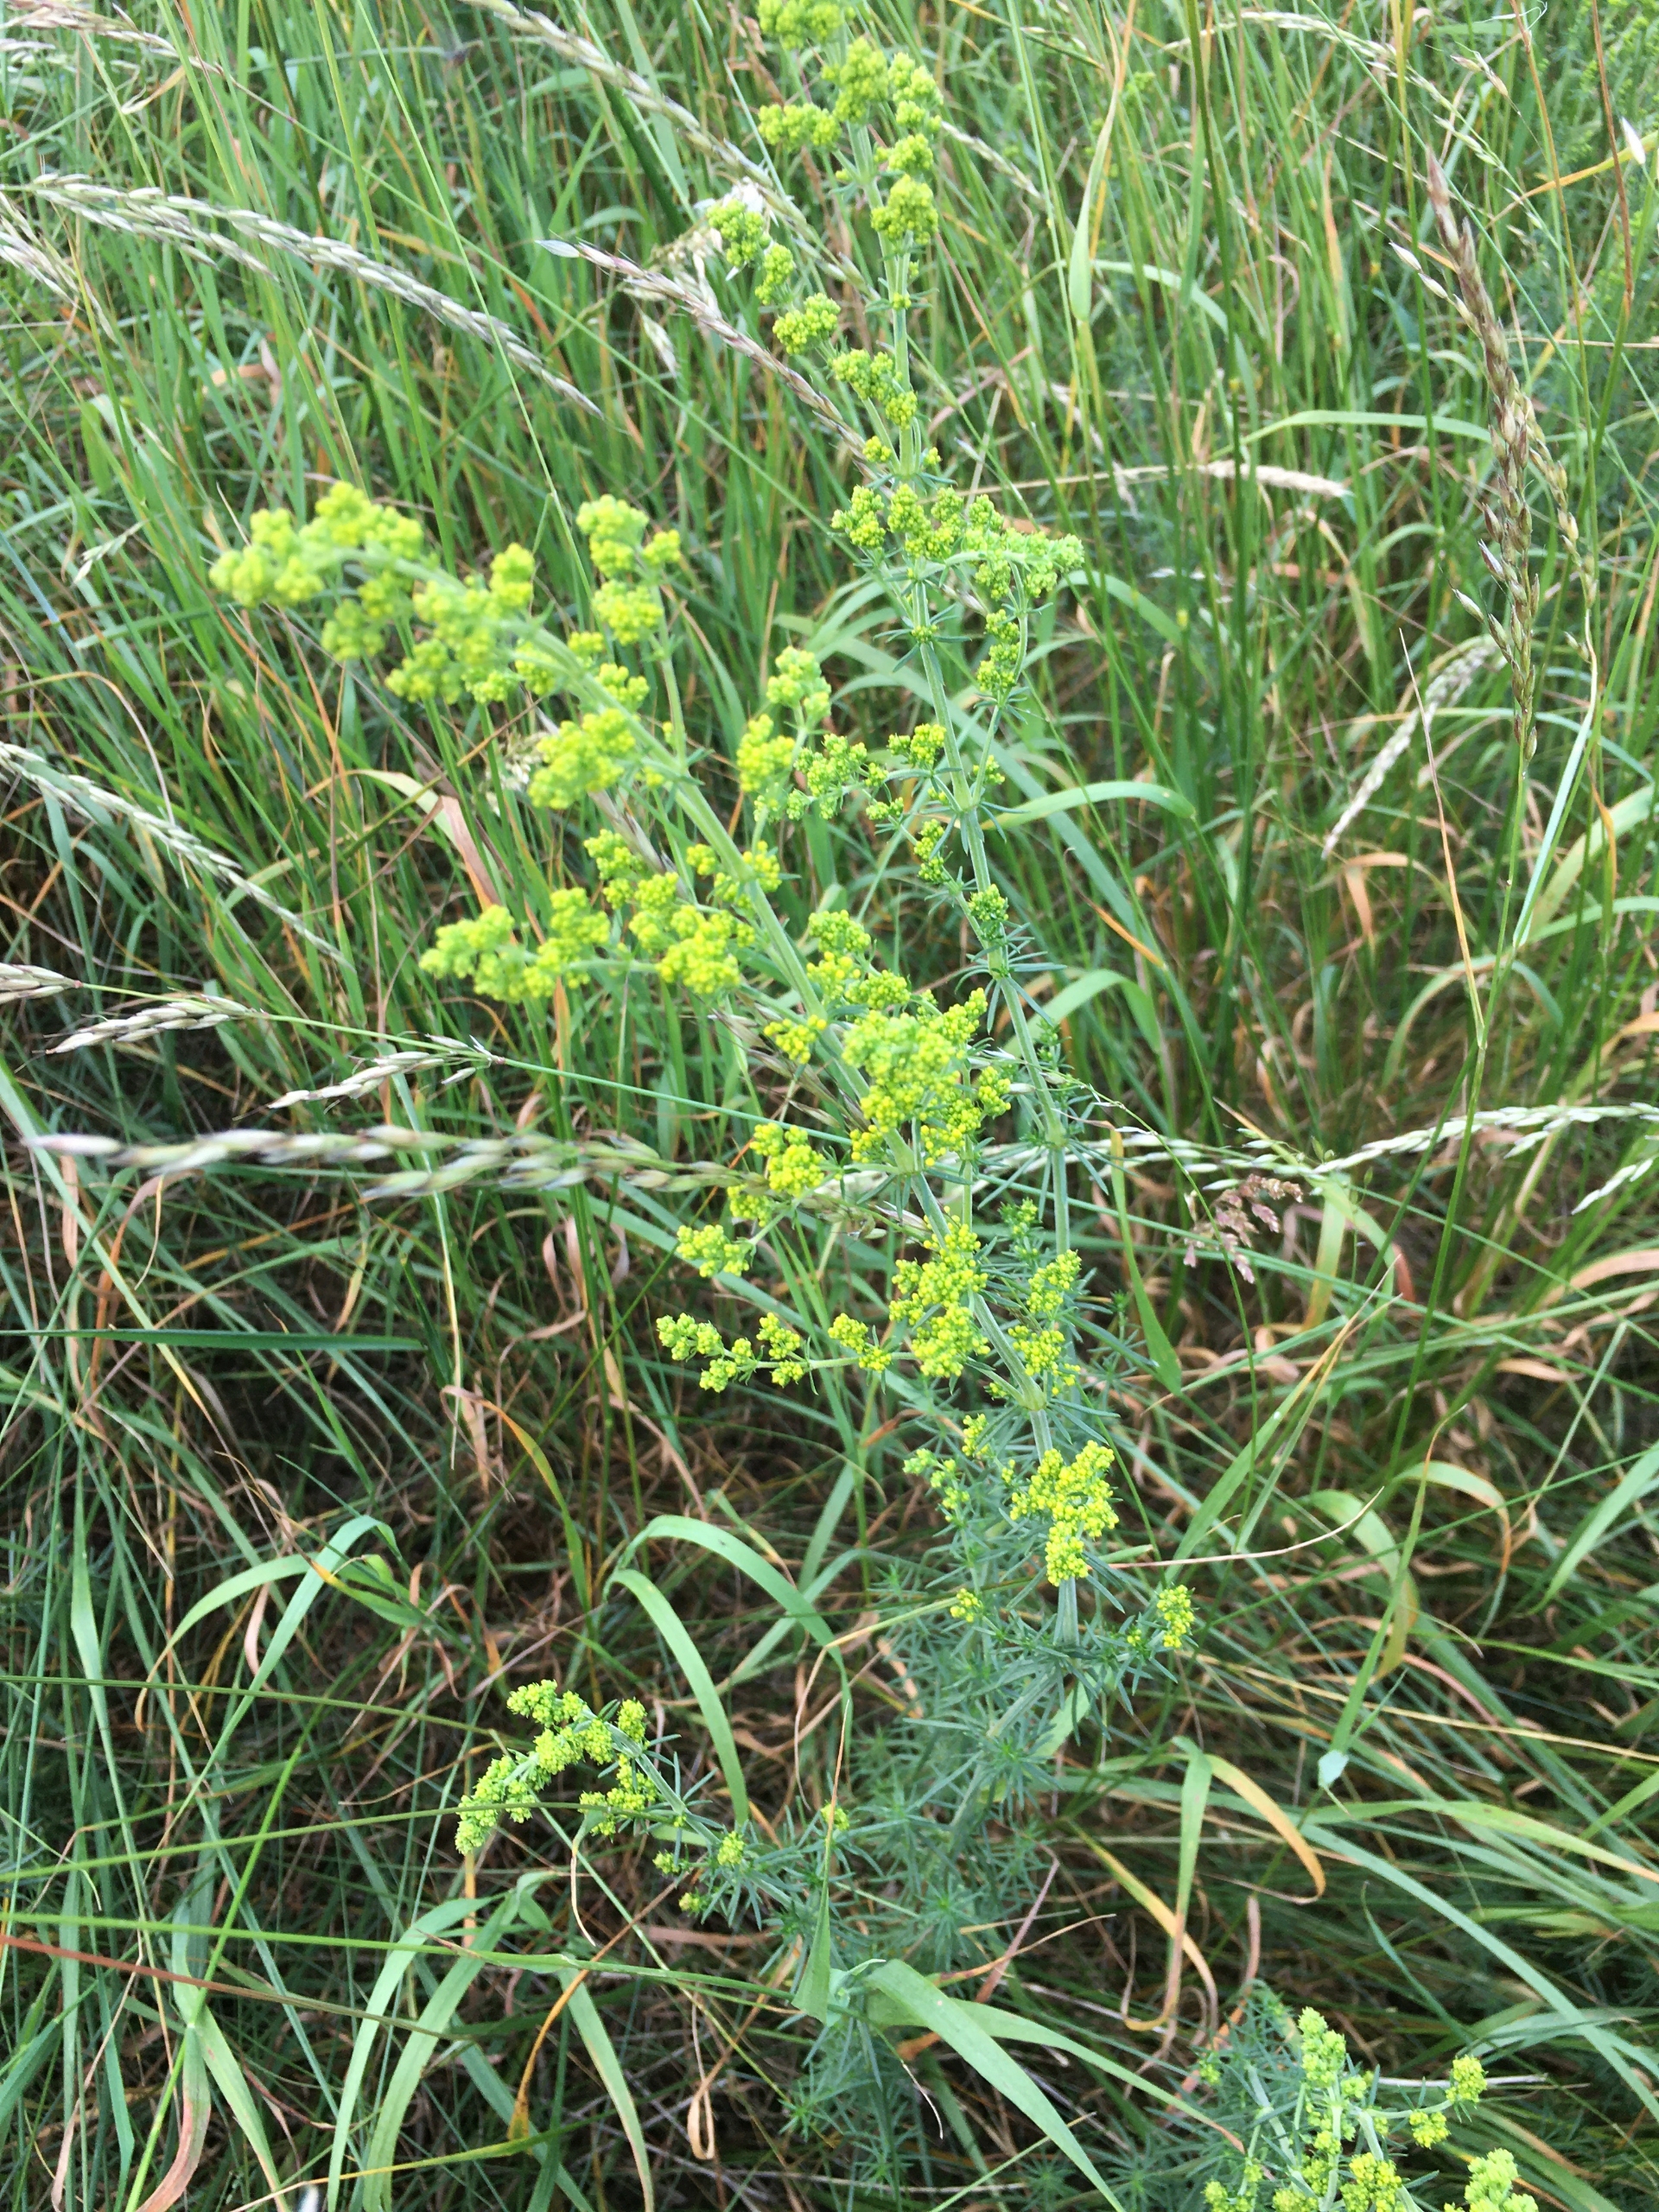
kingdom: Plantae
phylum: Tracheophyta
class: Magnoliopsida
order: Gentianales
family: Rubiaceae
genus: Galium
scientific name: Galium verum
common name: Gul snerre
